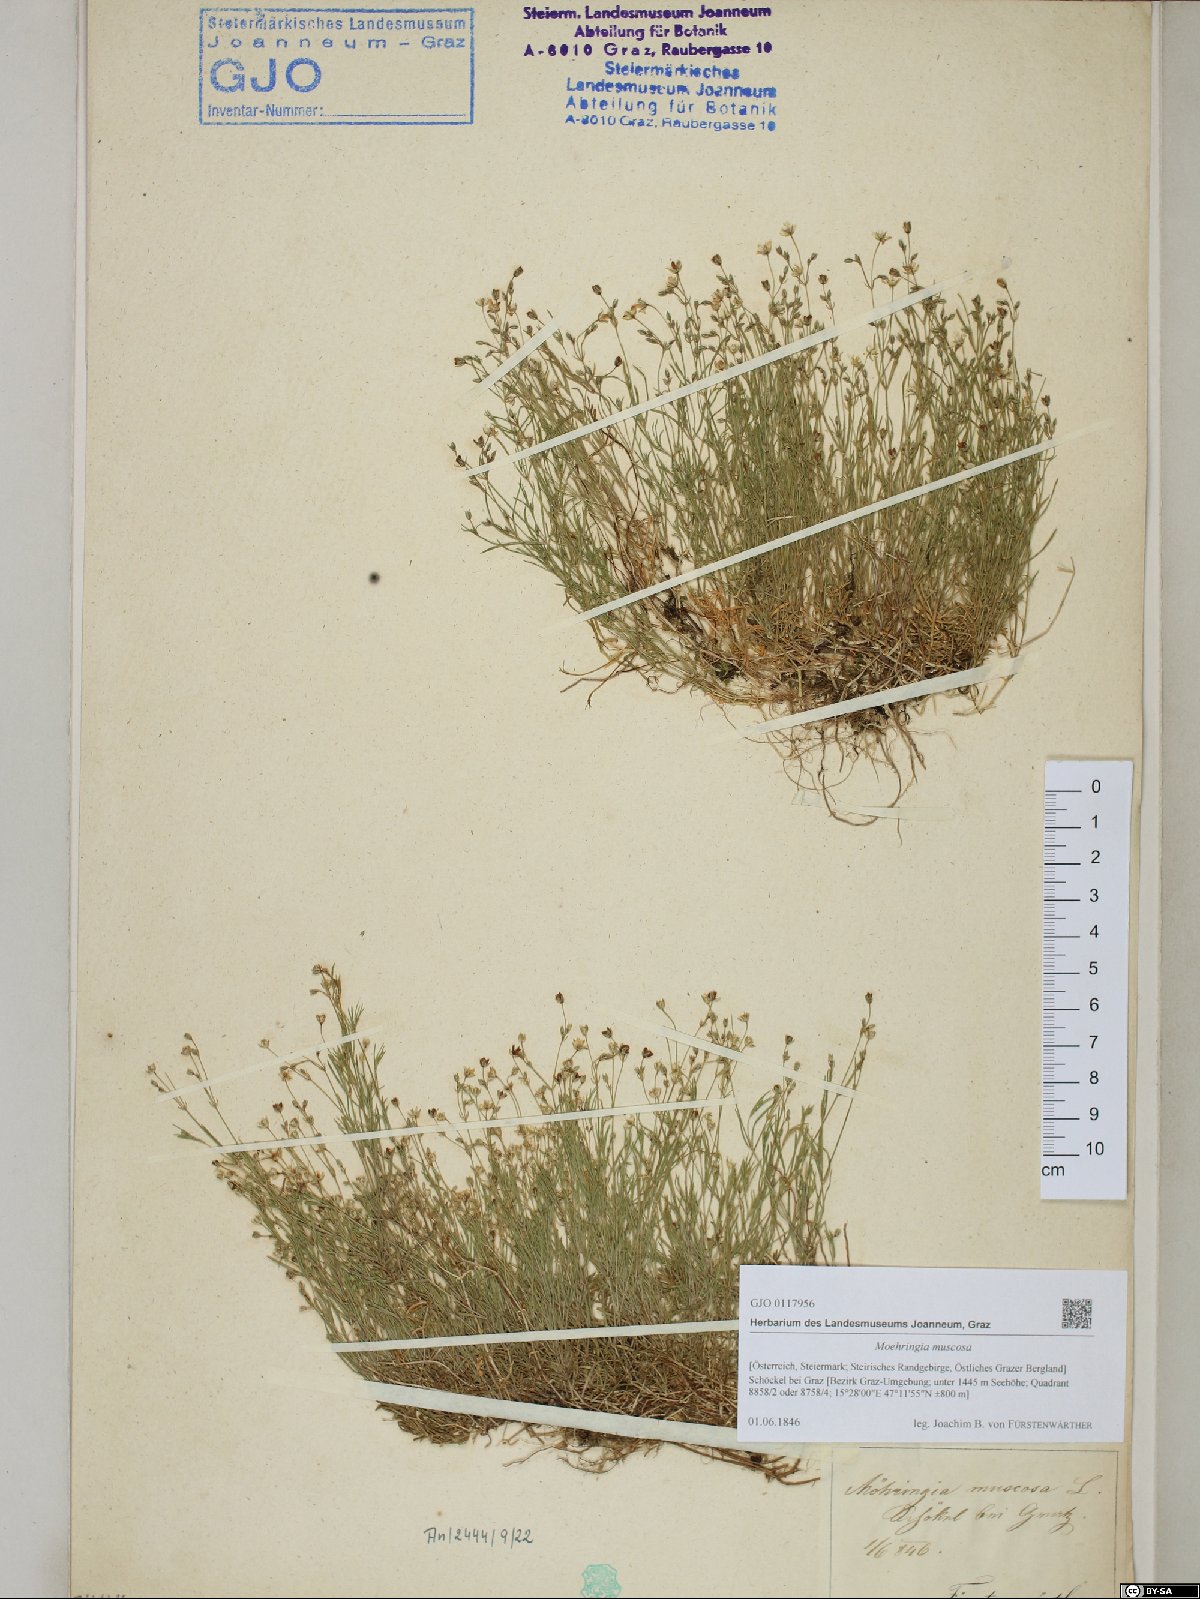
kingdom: Plantae
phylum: Tracheophyta
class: Magnoliopsida
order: Caryophyllales
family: Caryophyllaceae
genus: Moehringia
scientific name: Moehringia muscosa
